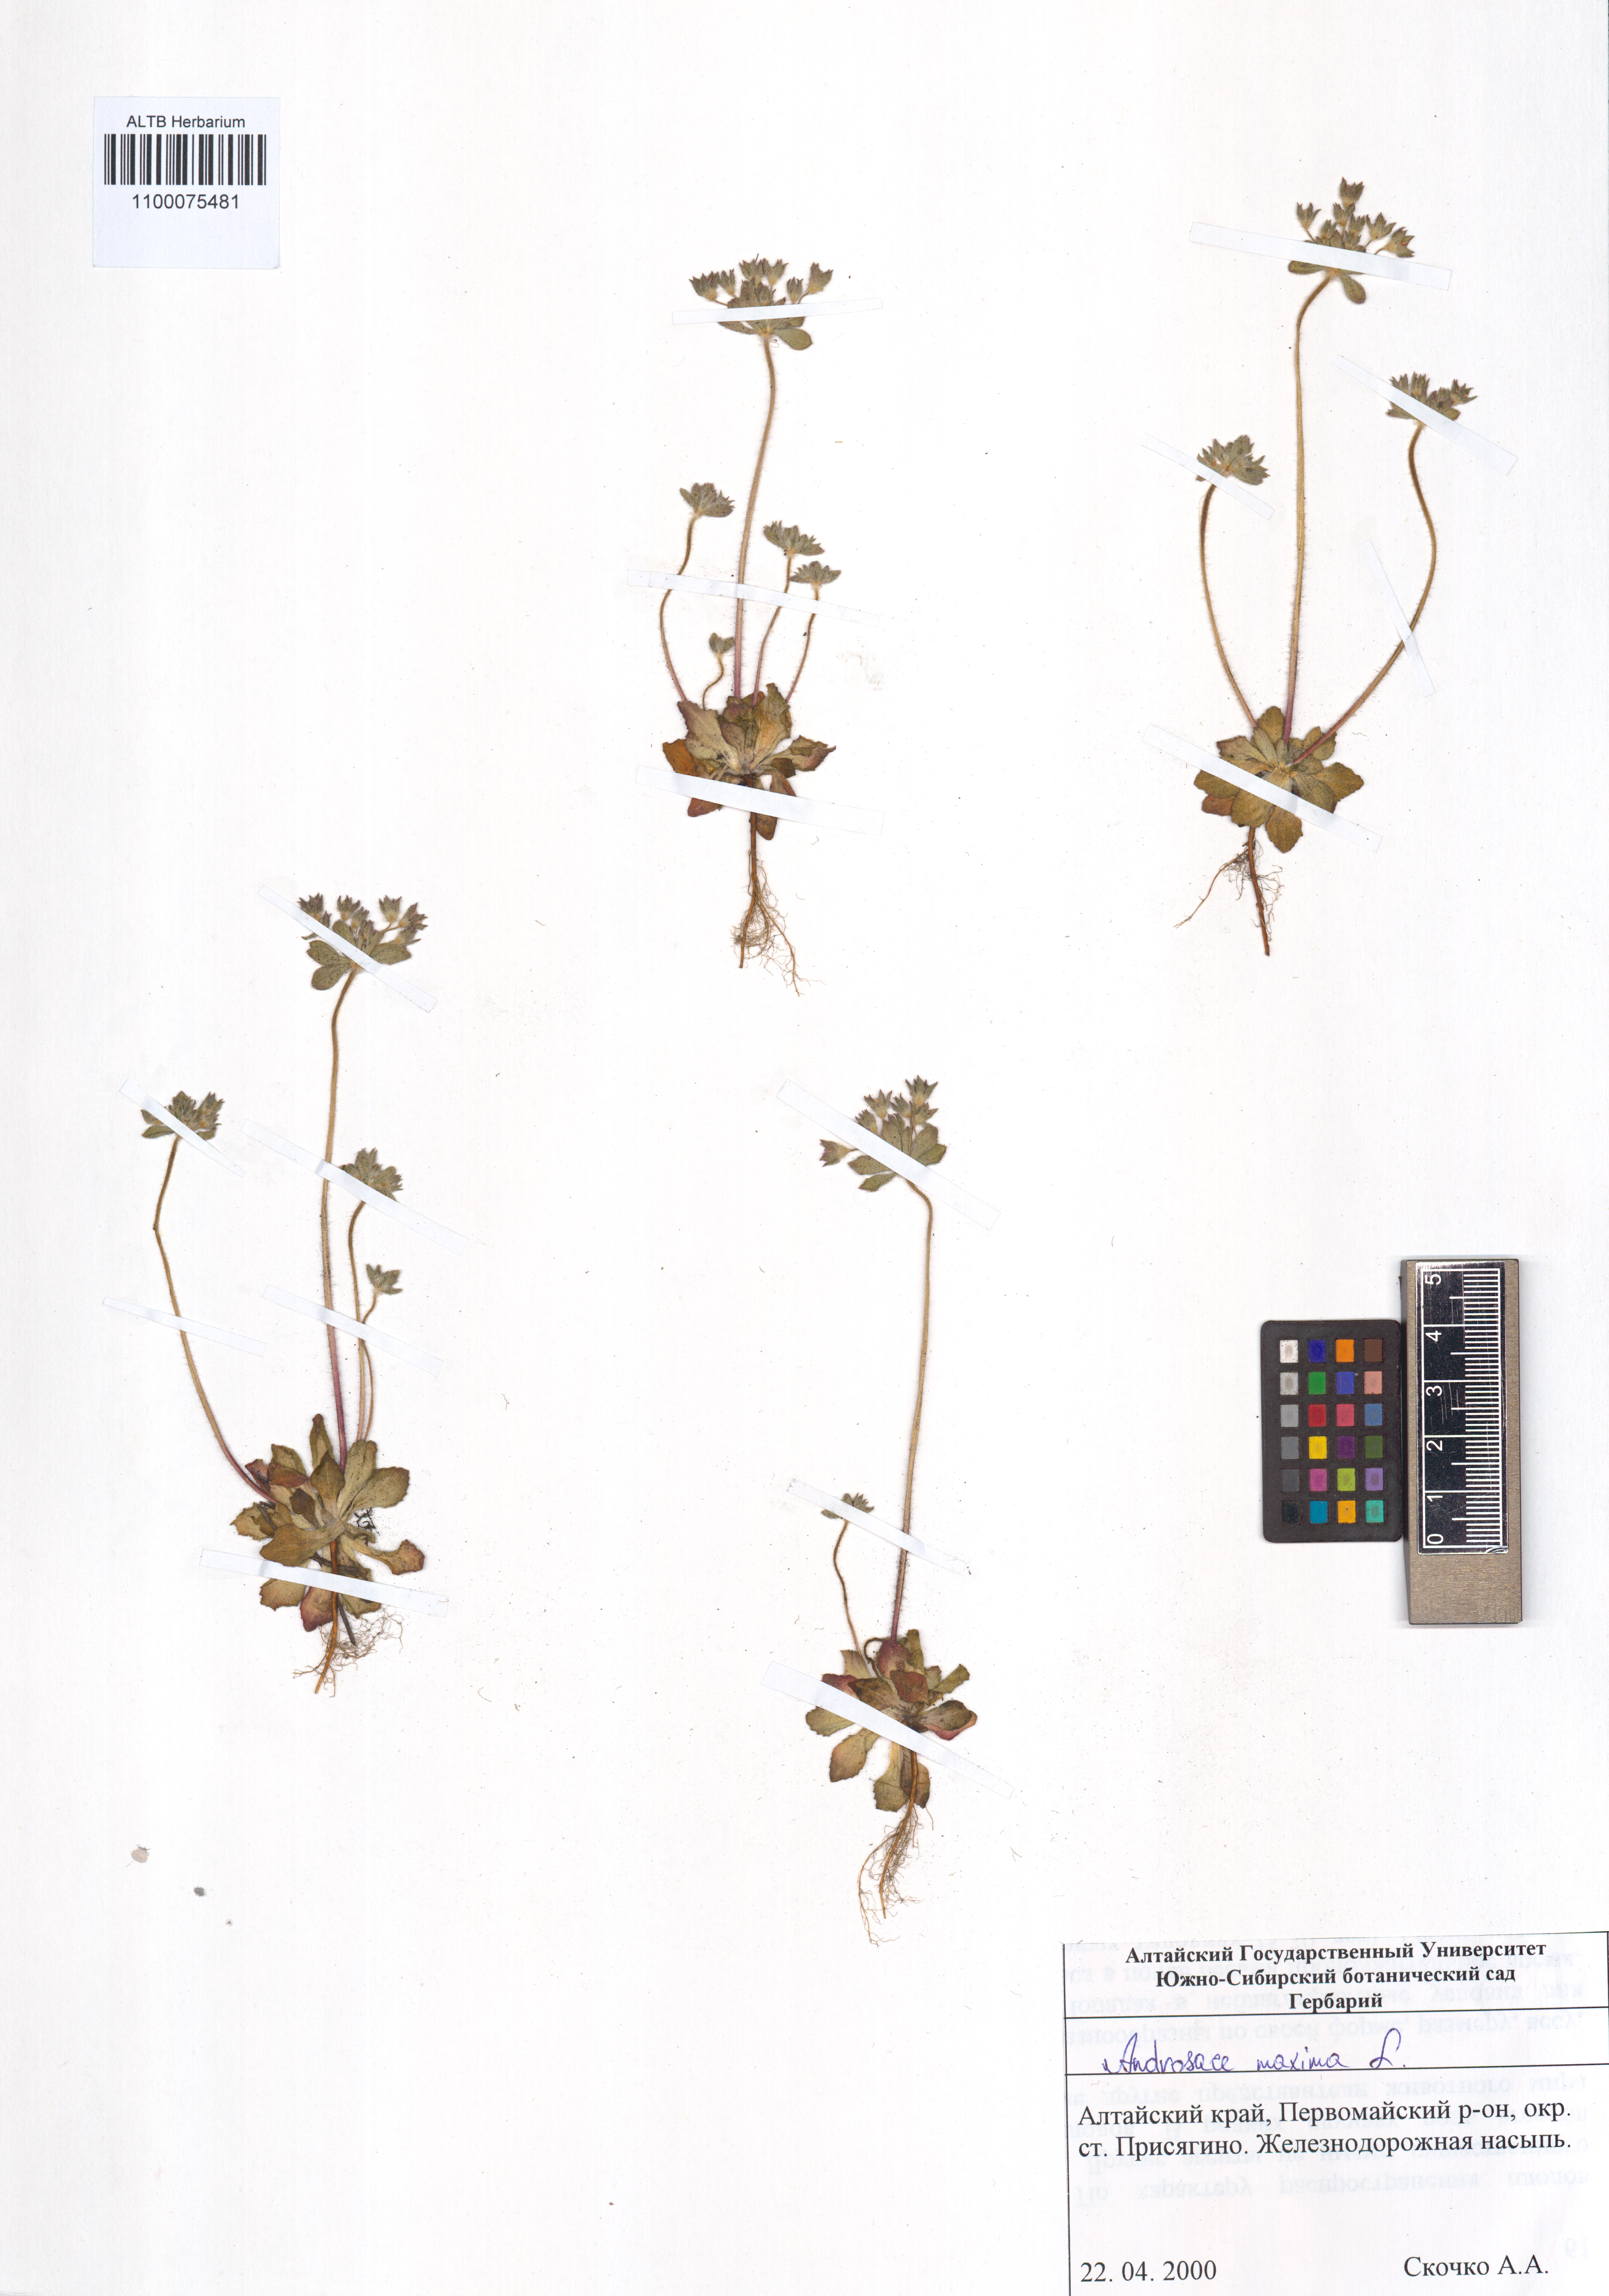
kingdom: Plantae
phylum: Tracheophyta
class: Magnoliopsida
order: Ericales
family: Primulaceae
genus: Androsace
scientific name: Androsace maxima
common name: Annual androsace
